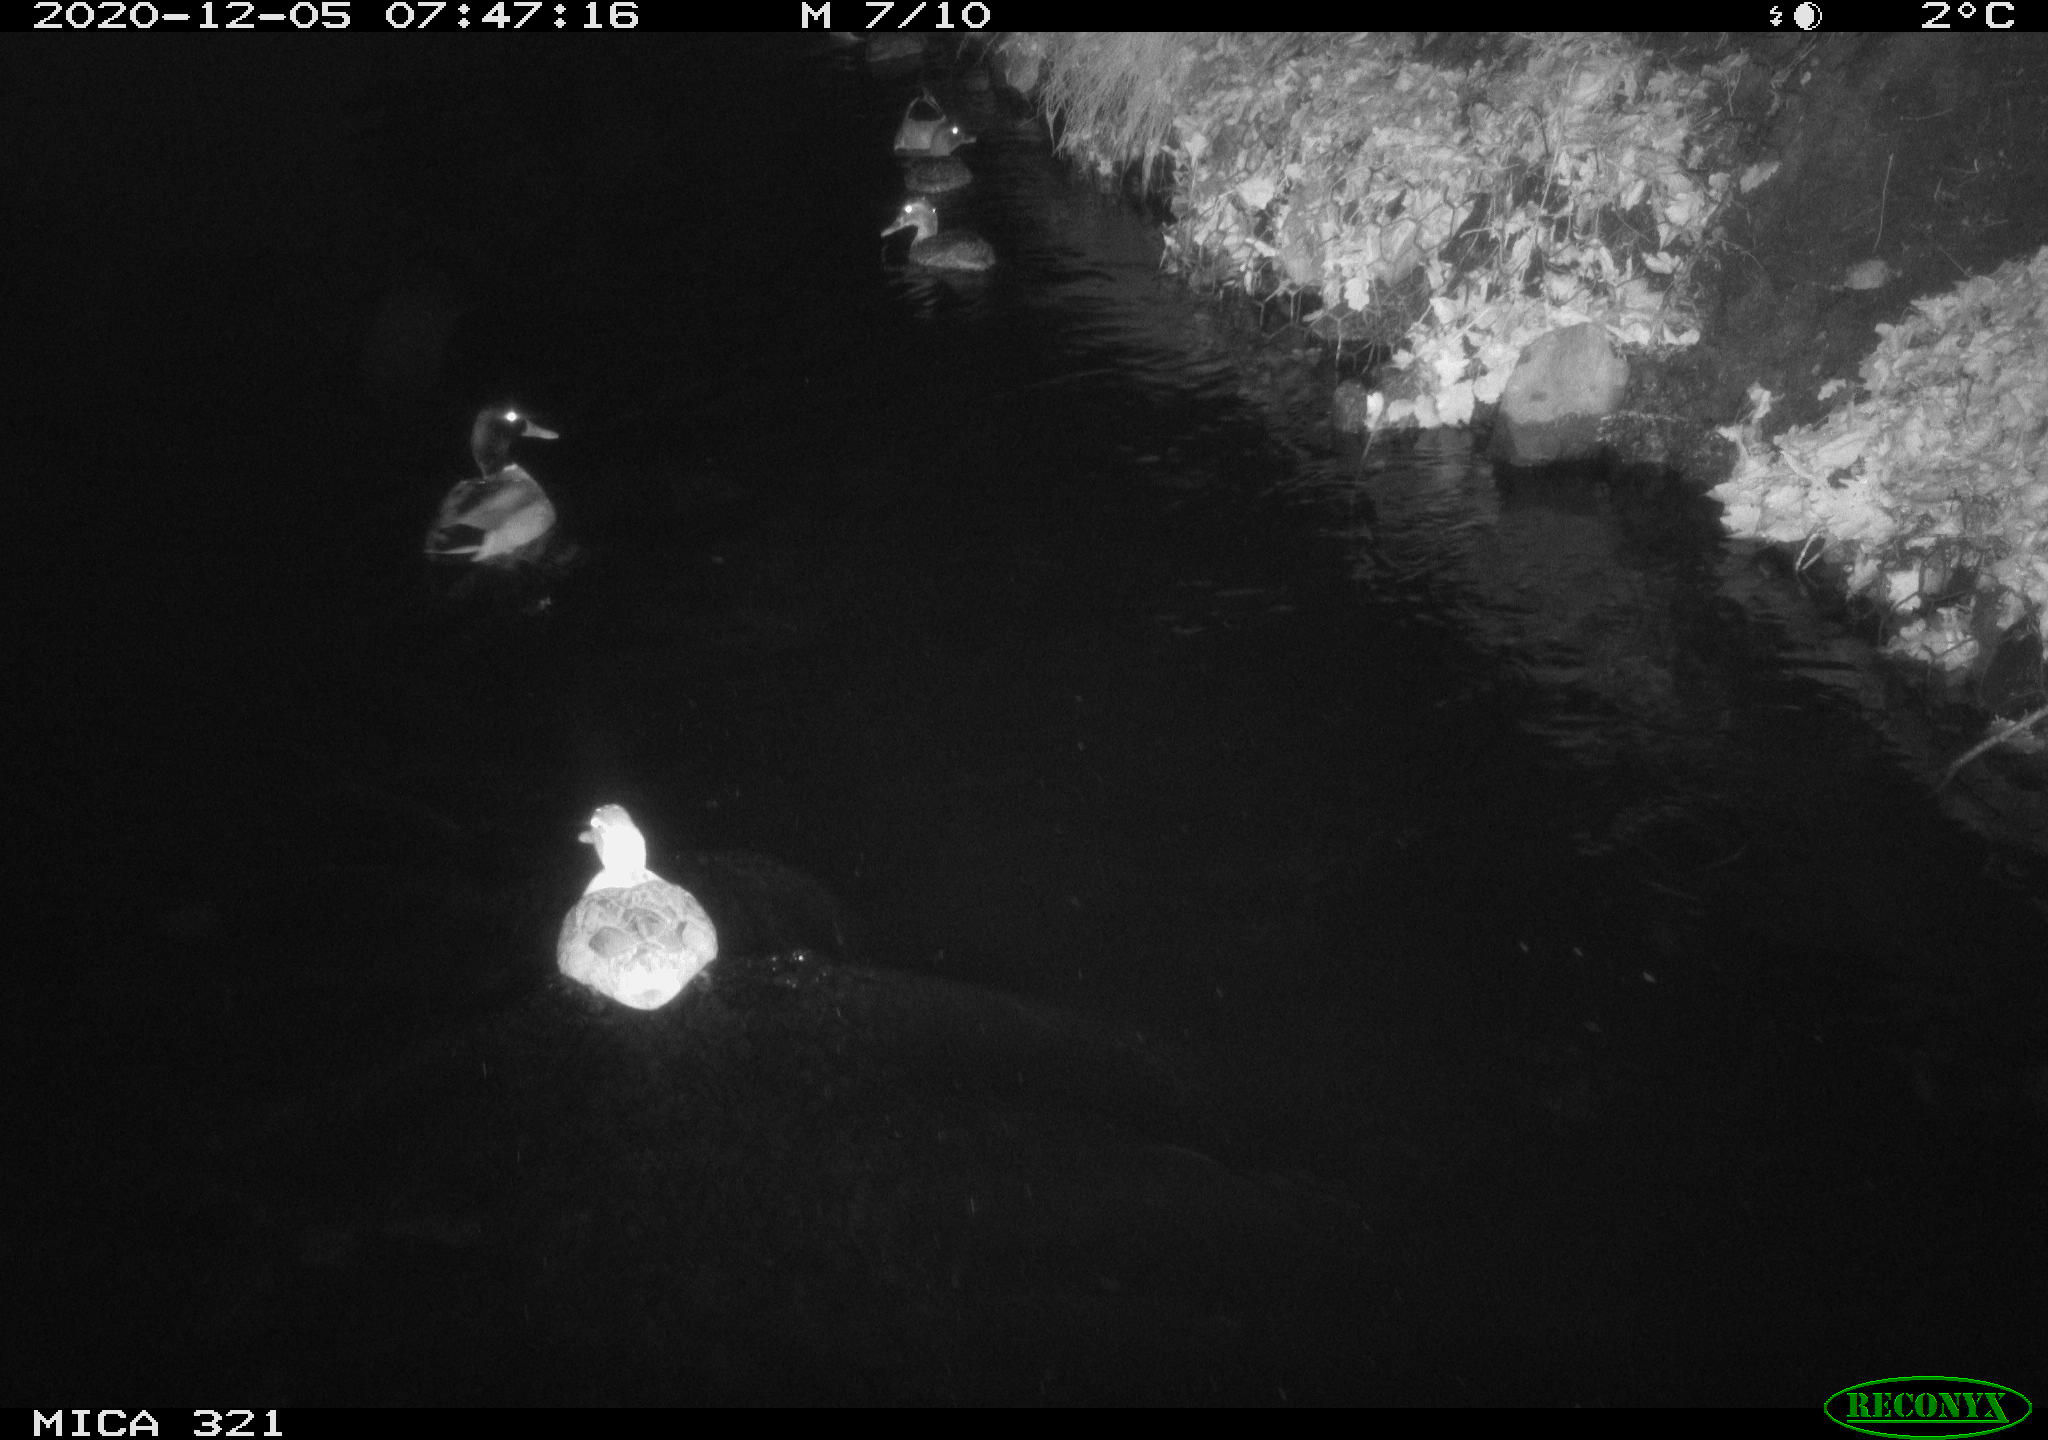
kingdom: Animalia
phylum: Chordata
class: Aves
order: Anseriformes
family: Anatidae
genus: Anas
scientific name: Anas platyrhynchos
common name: Mallard
